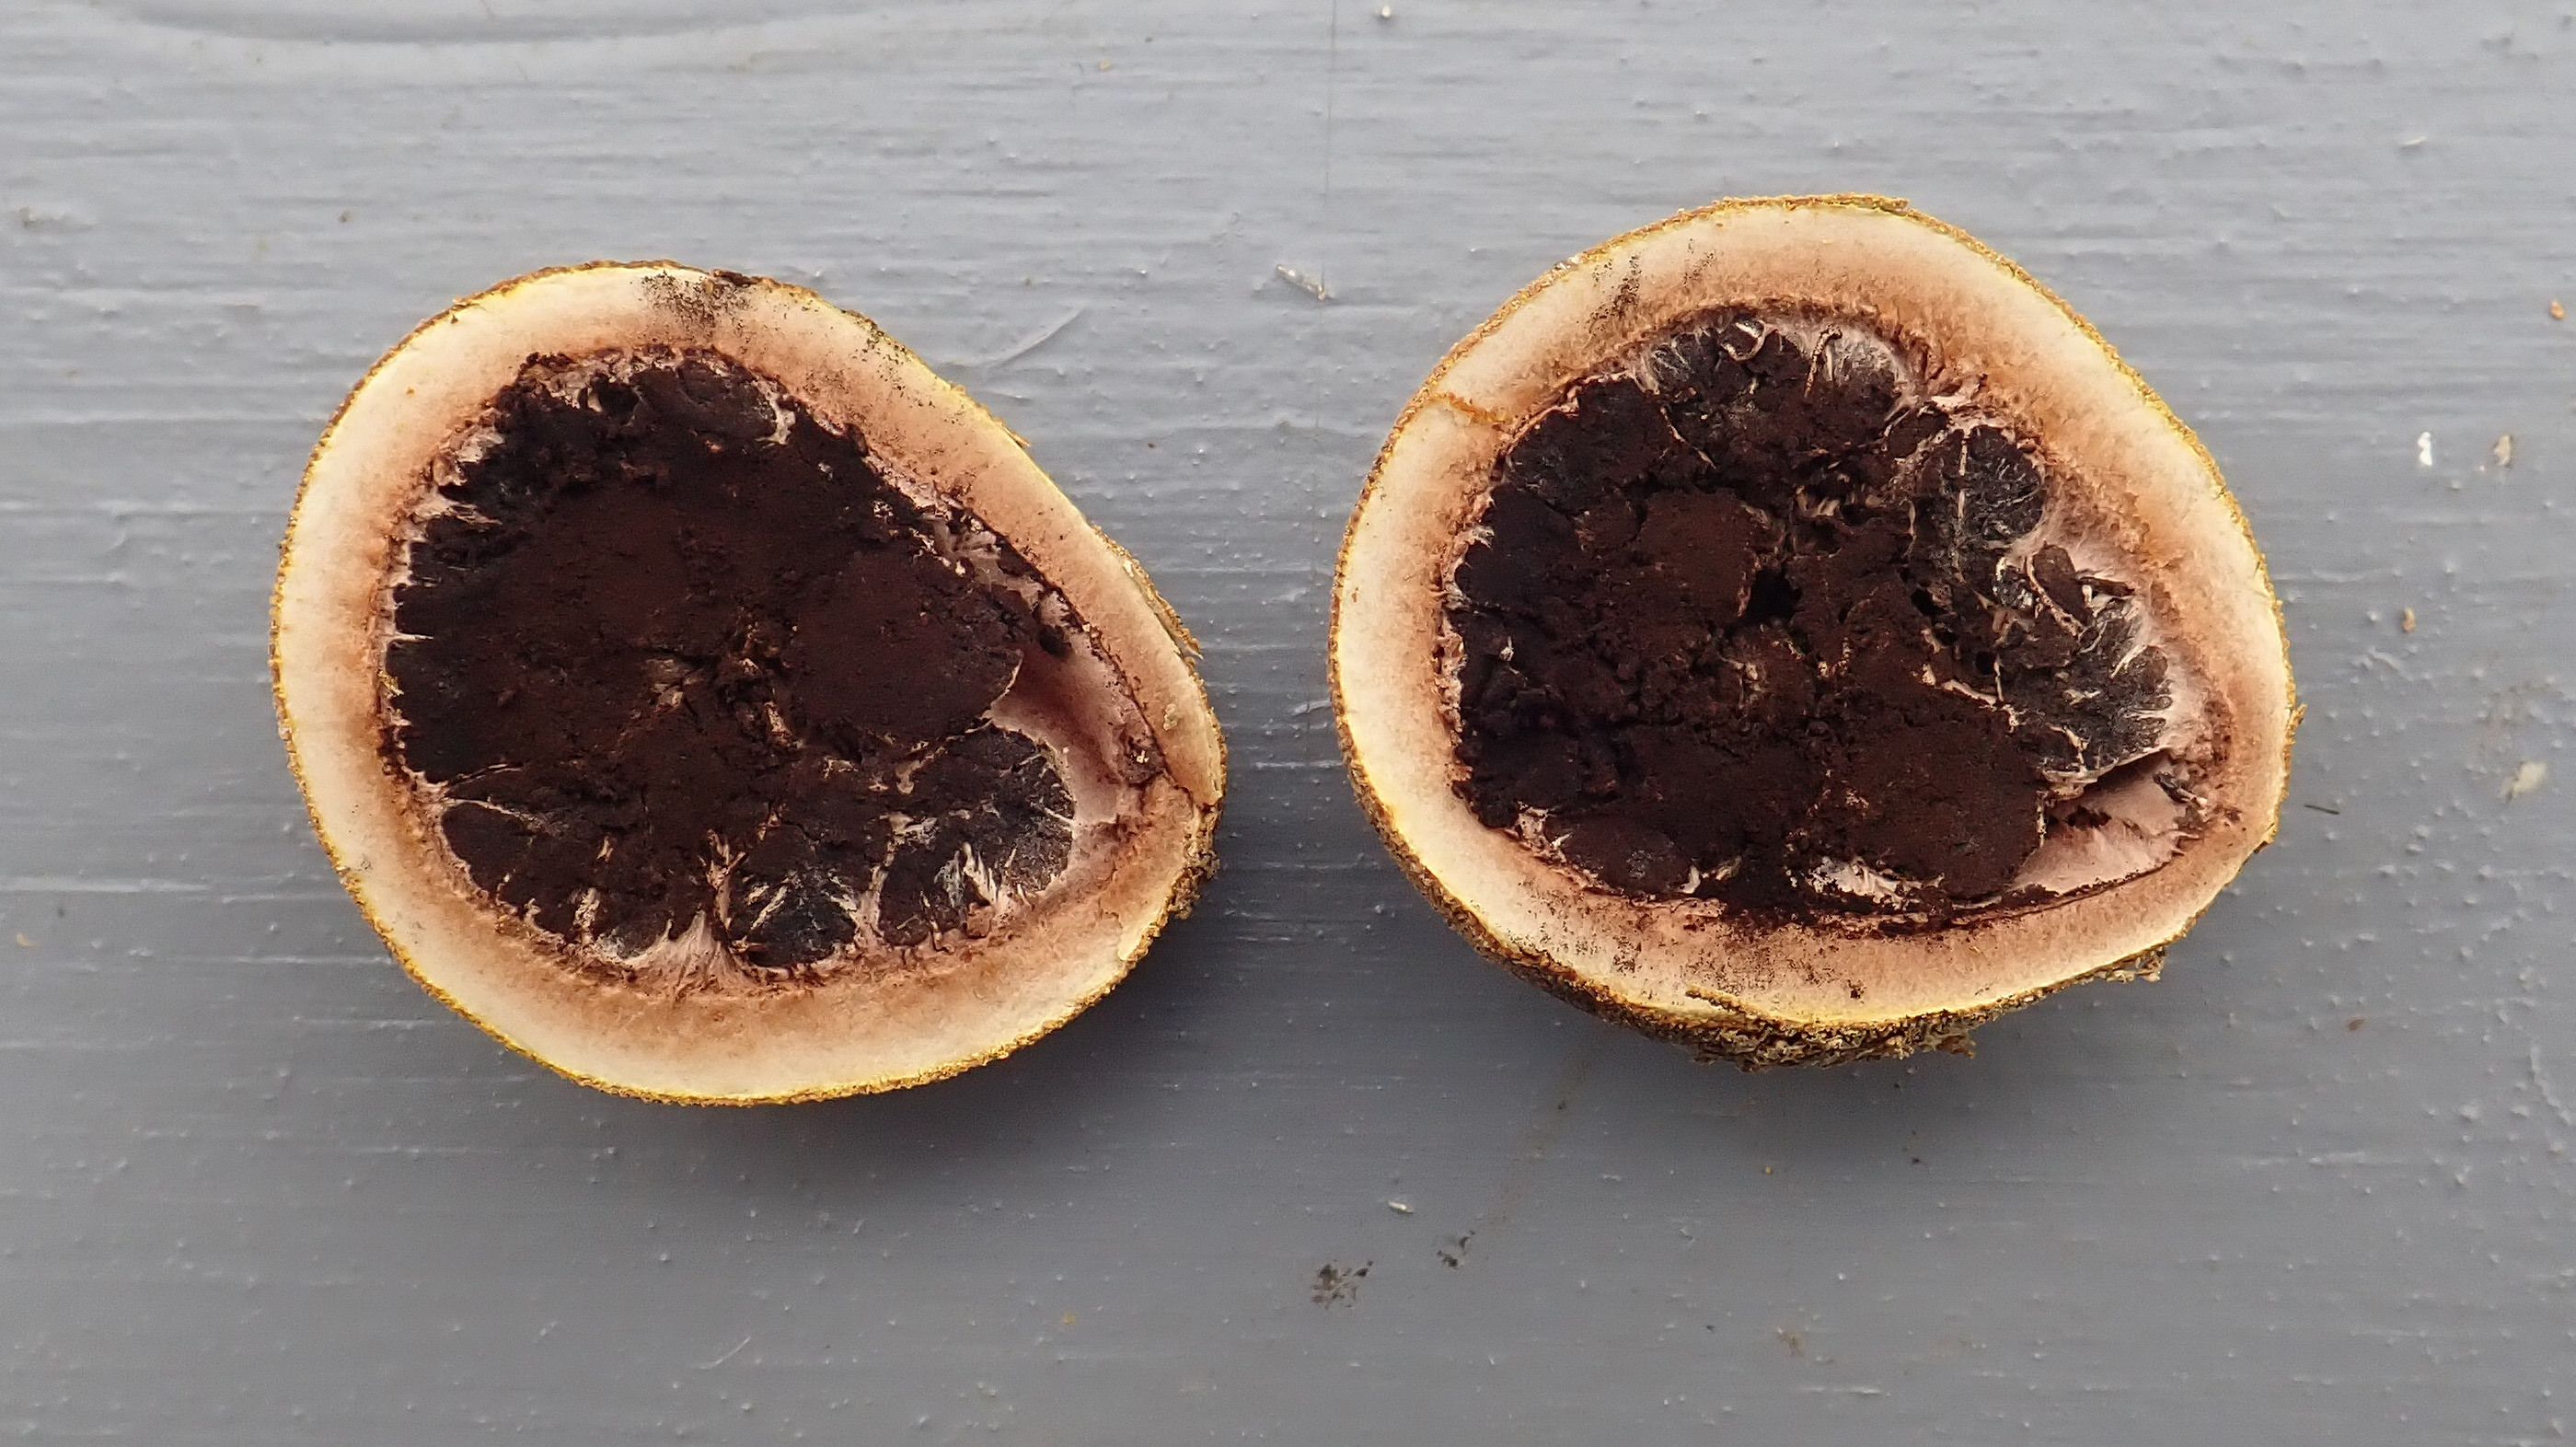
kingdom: Fungi
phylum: Ascomycota
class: Eurotiomycetes
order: Eurotiales
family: Elaphomycetaceae
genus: Elaphomyces
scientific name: Elaphomyces granulatus
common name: False truffle
